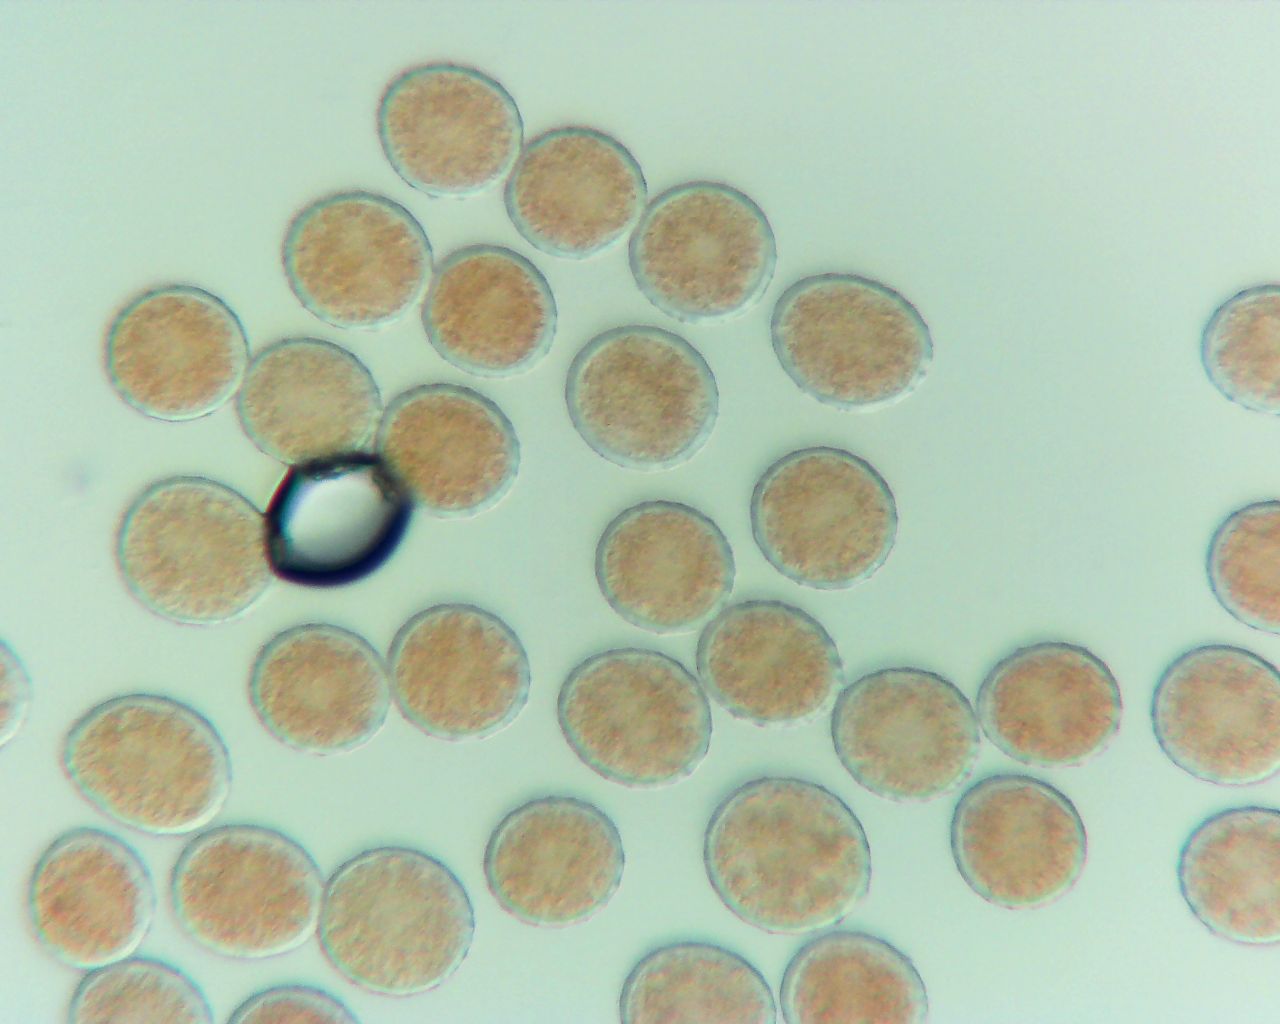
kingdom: Fungi
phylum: Basidiomycota
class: Pucciniomycetes
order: Pucciniales
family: Melampsoraceae
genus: Melampsora
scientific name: Melampsora populnea
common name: poppel-skorperust
